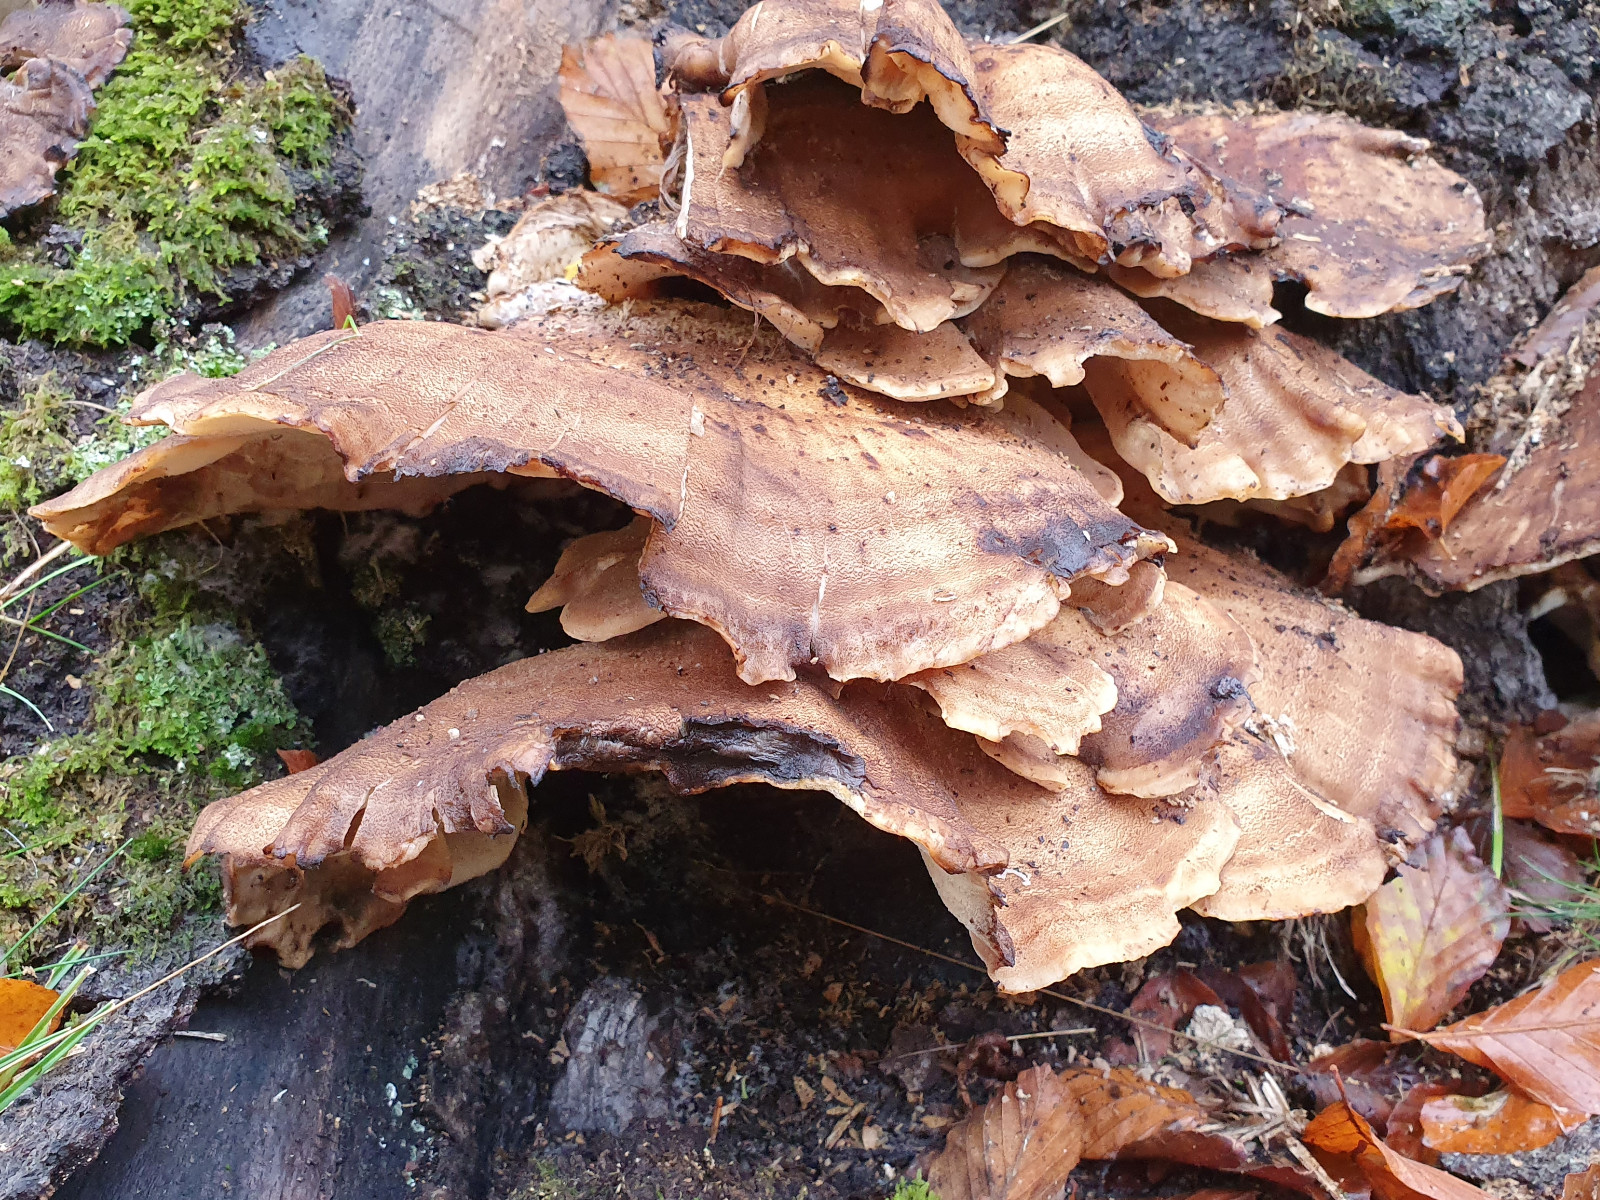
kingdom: Fungi
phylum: Basidiomycota
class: Agaricomycetes
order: Polyporales
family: Meripilaceae
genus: Meripilus
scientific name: Meripilus giganteus
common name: kæmpeporesvamp
